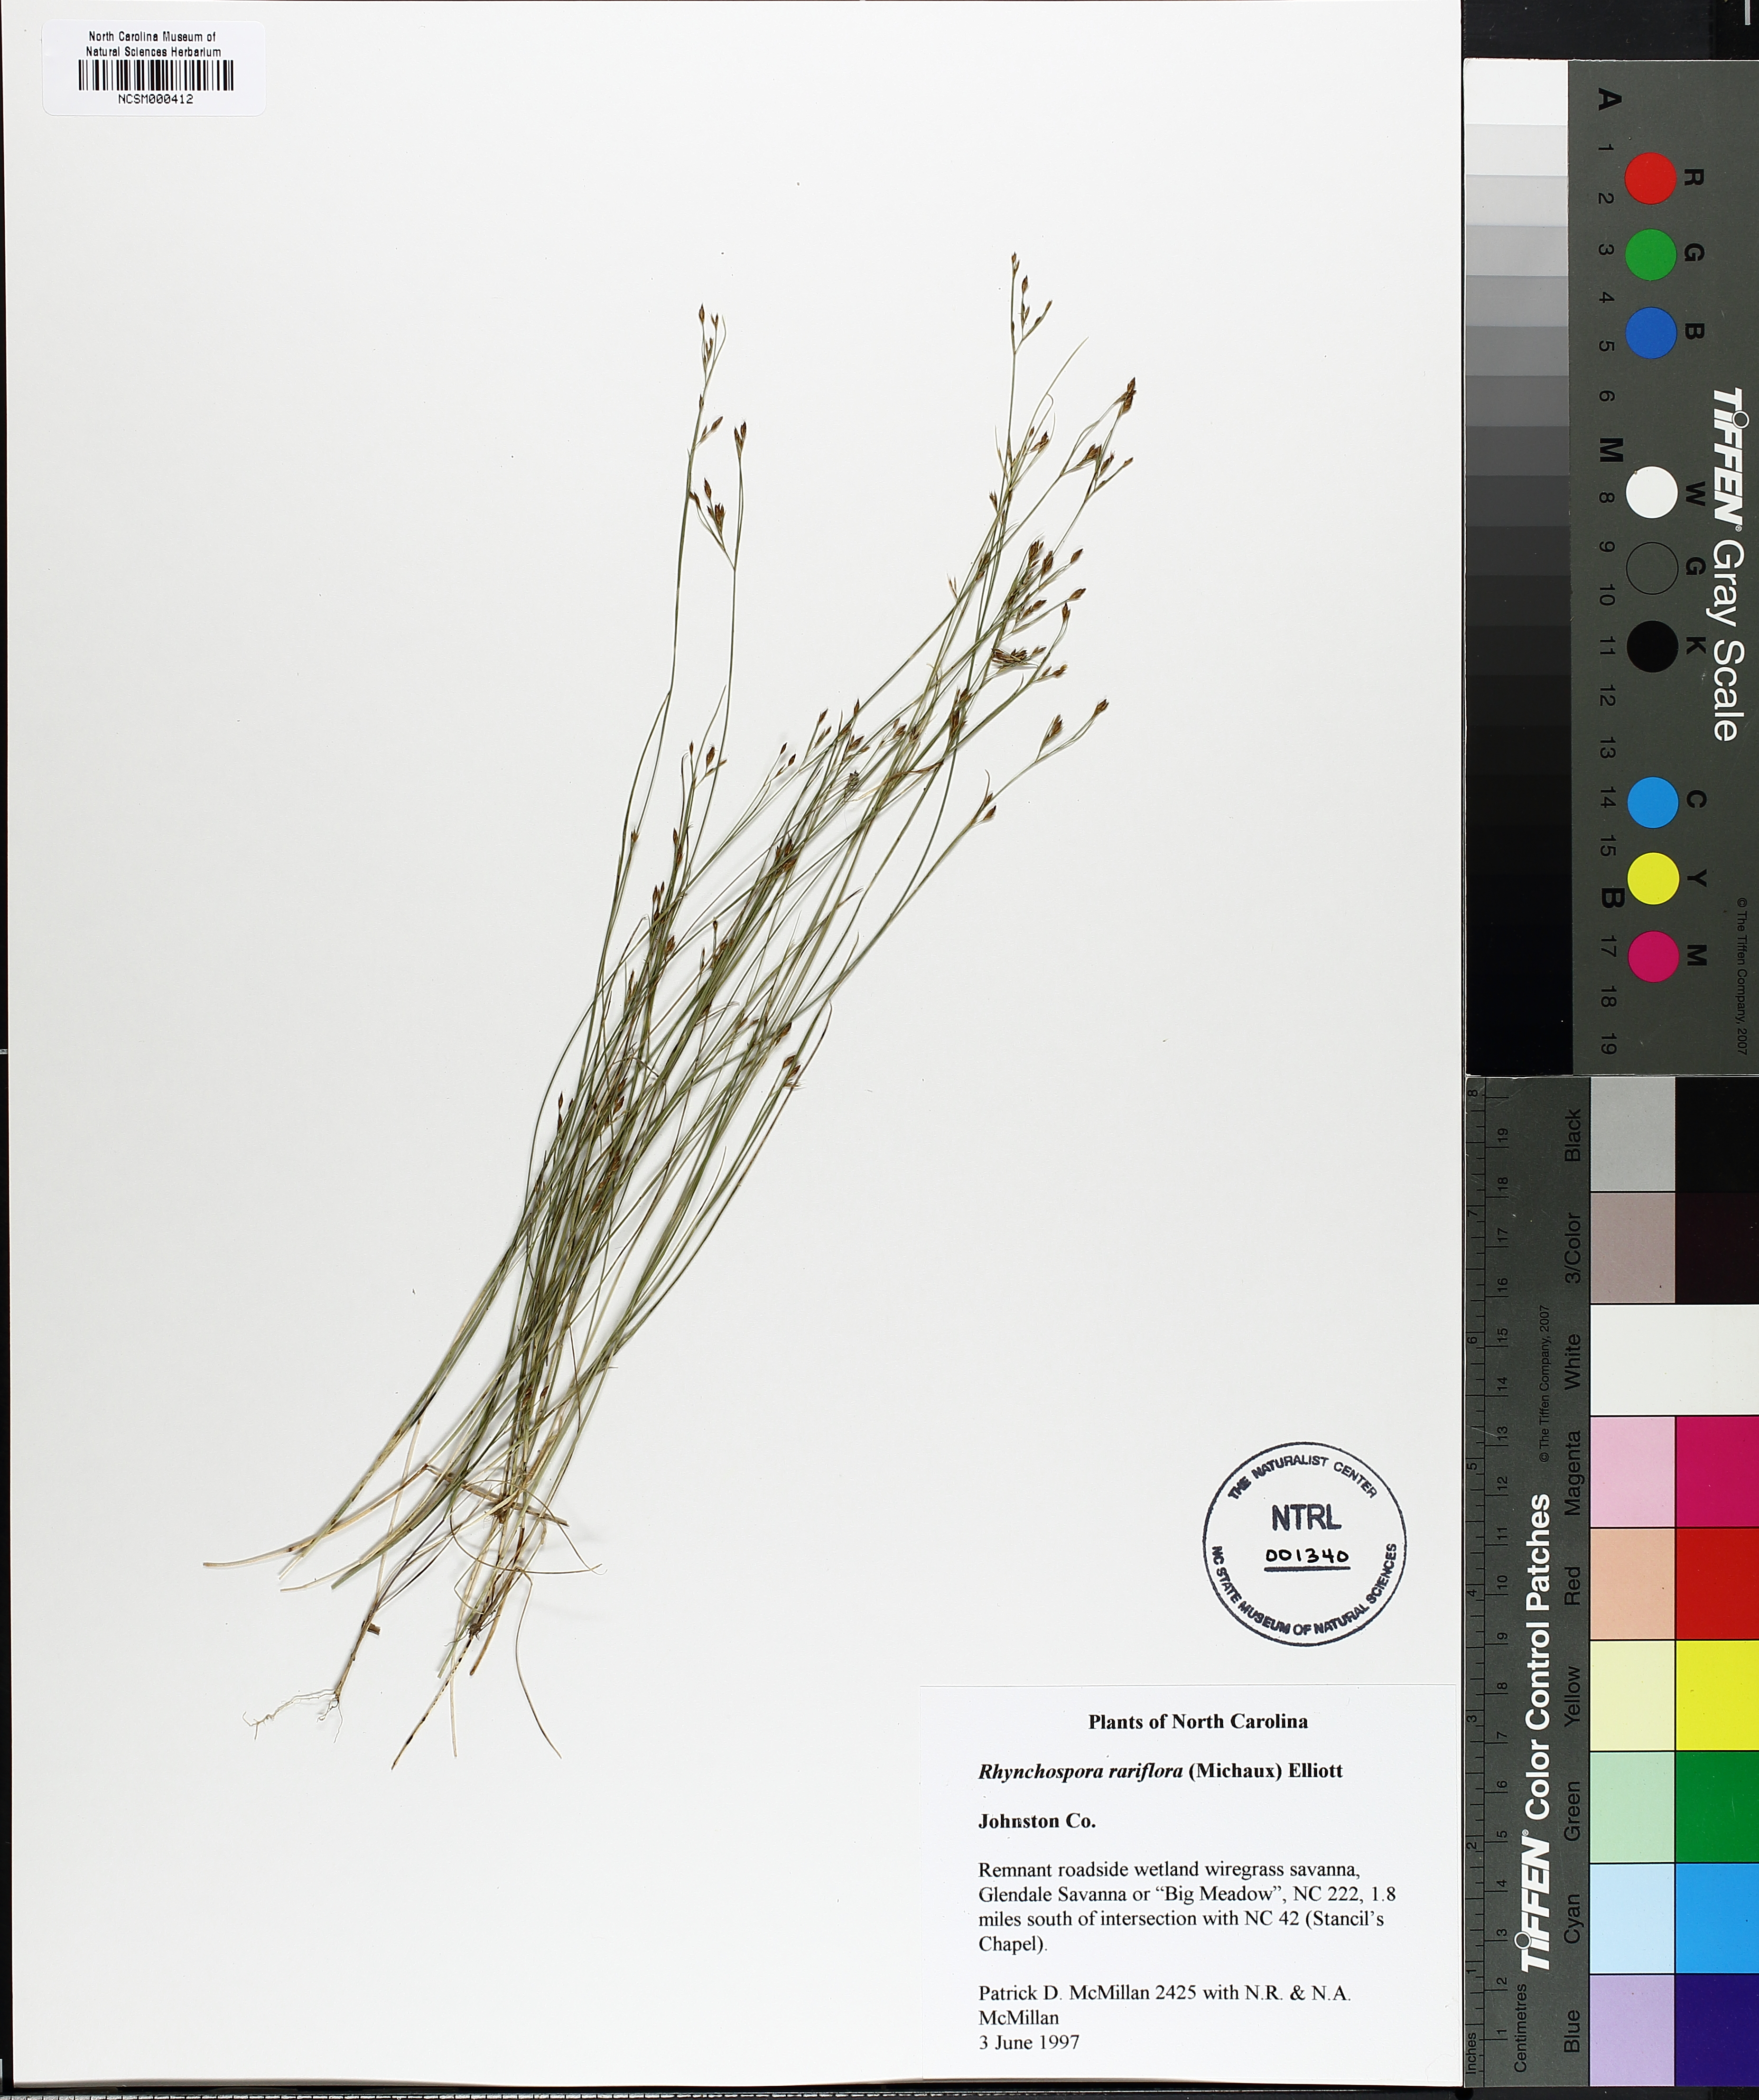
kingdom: Plantae
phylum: Tracheophyta
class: Liliopsida
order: Poales
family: Cyperaceae
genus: Rhynchospora
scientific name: Rhynchospora rariflora
